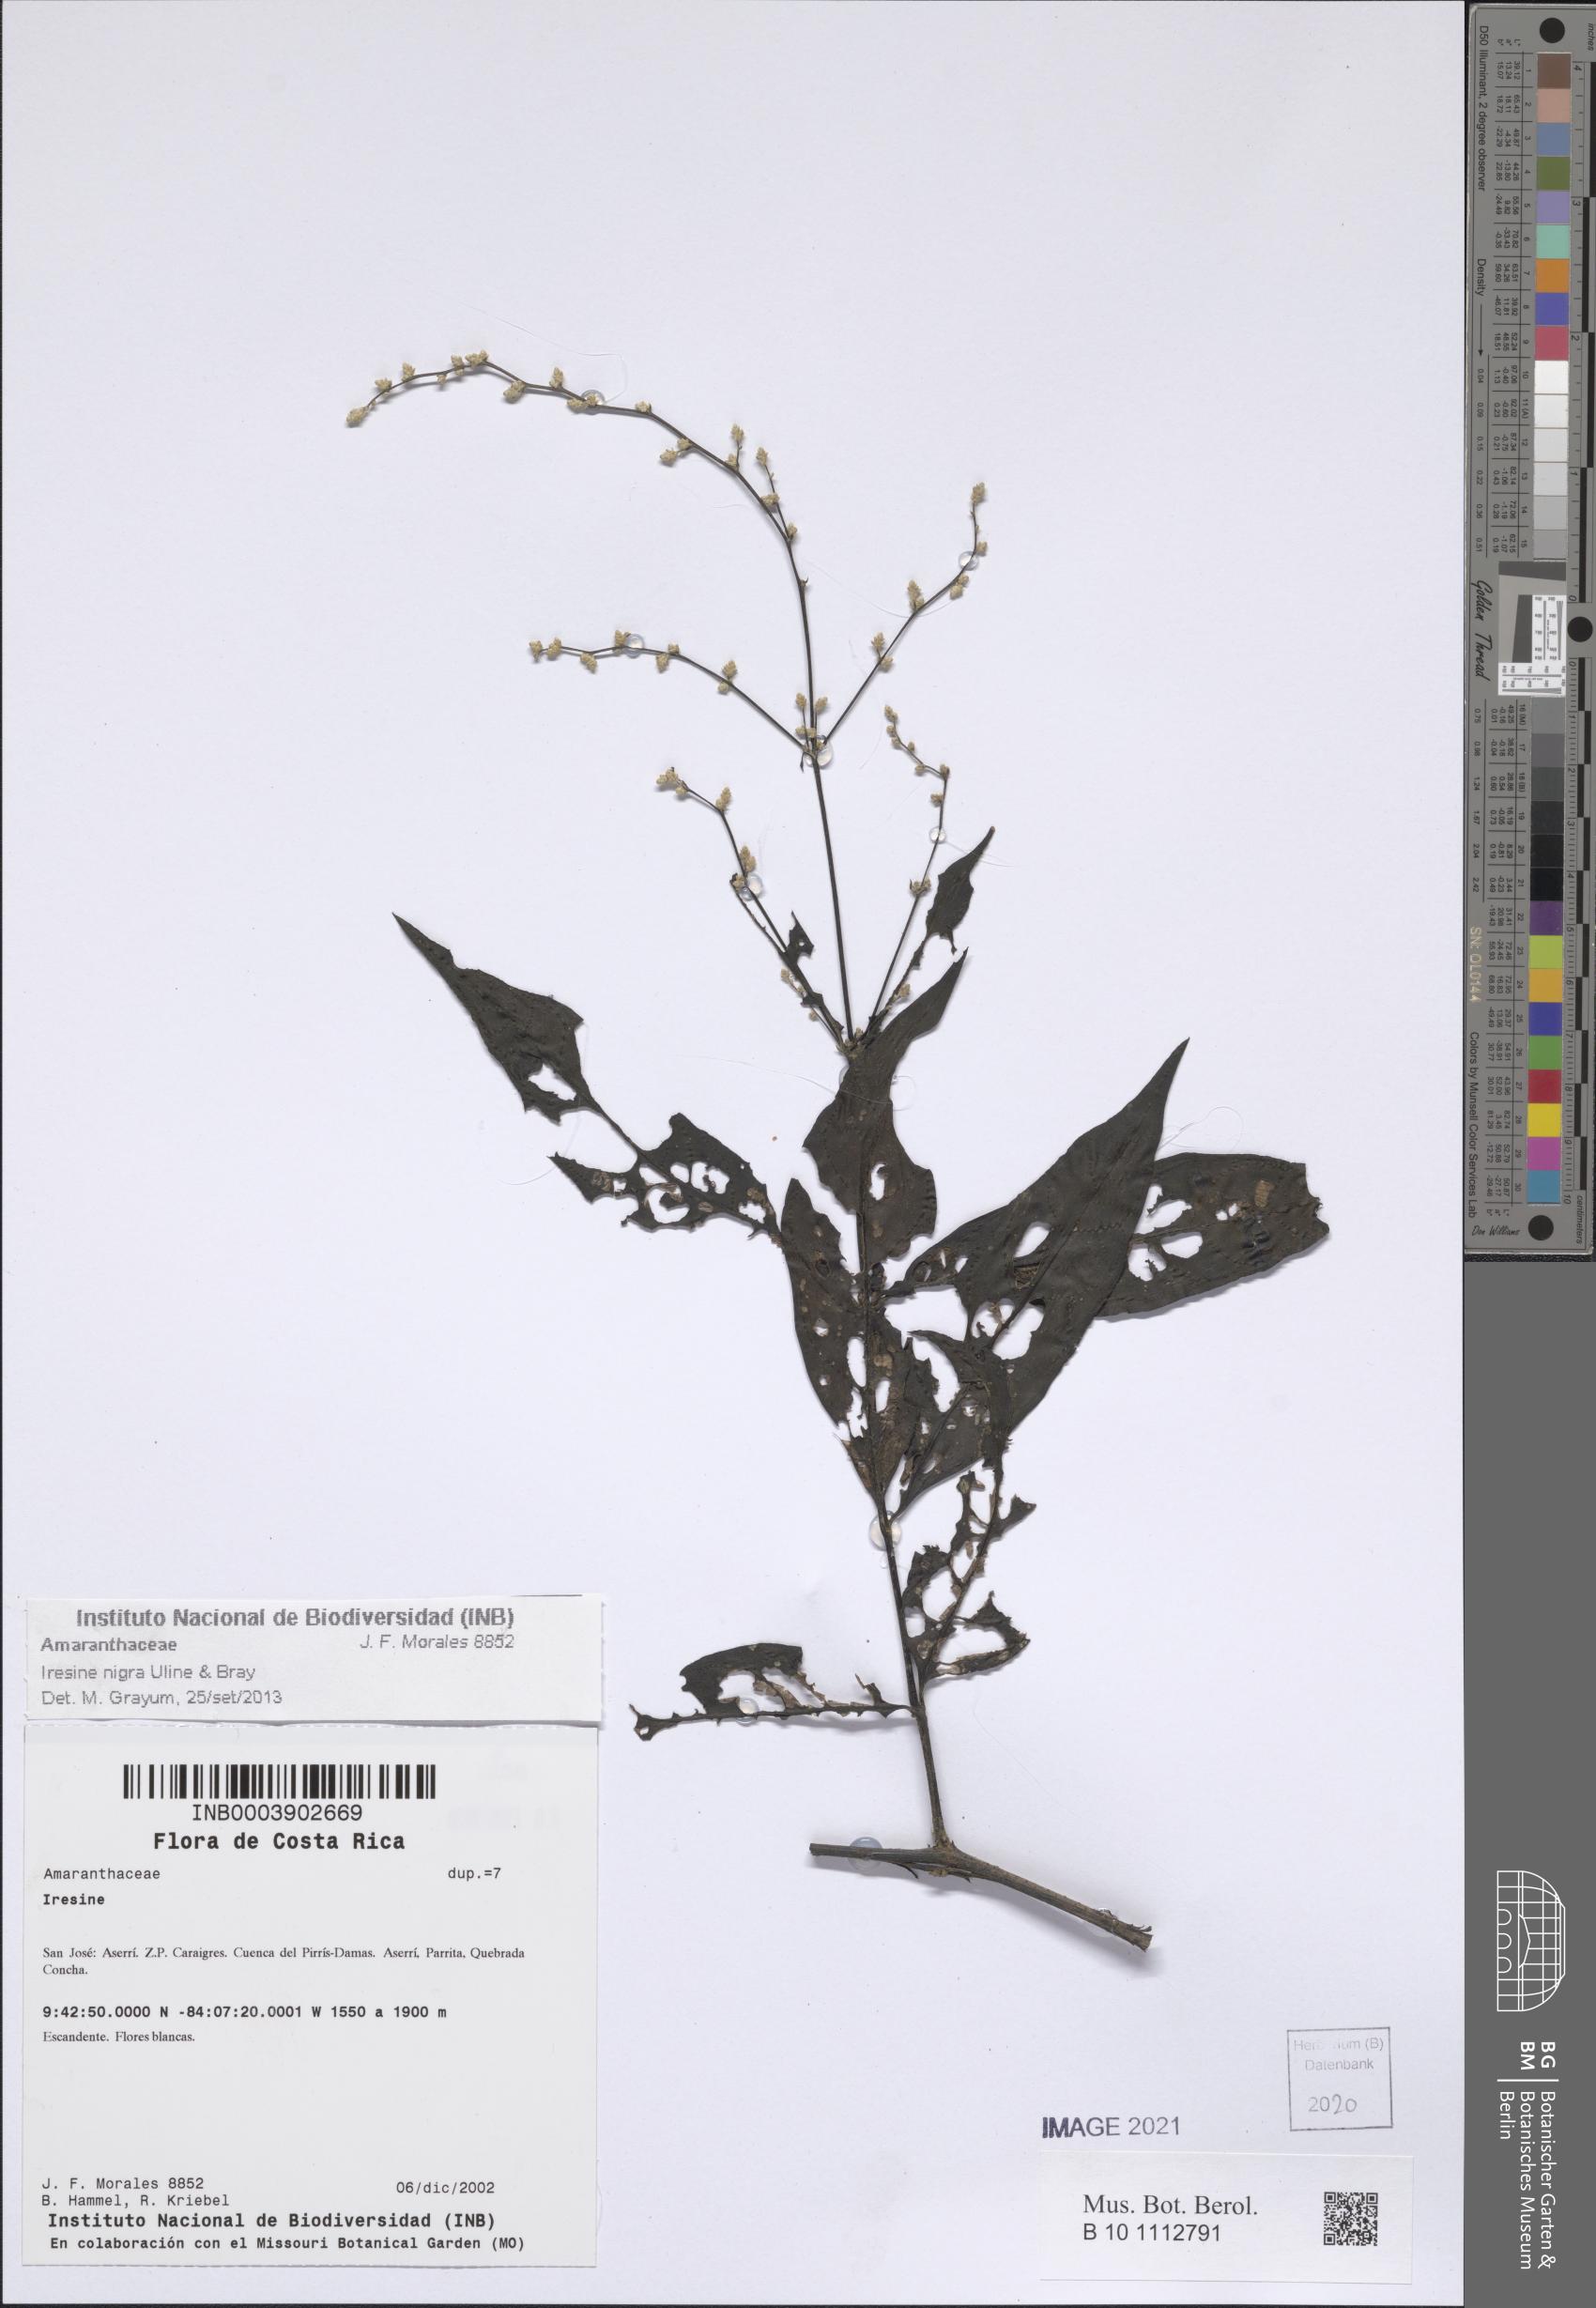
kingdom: Plantae
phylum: Tracheophyta
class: Magnoliopsida
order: Caryophyllales
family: Amaranthaceae
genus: Iresine
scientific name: Iresine nigra
